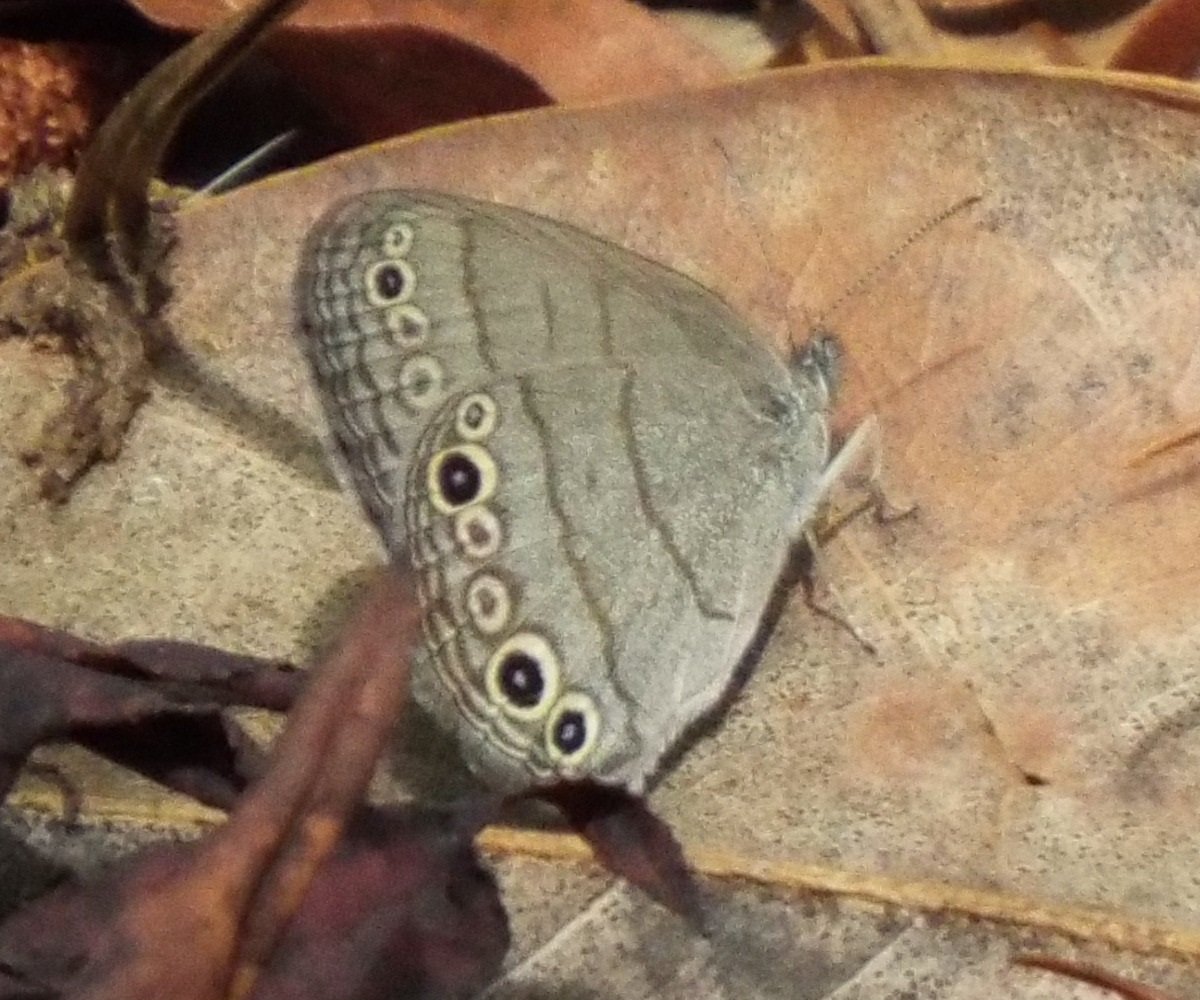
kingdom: Animalia
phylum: Arthropoda
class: Insecta
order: Lepidoptera
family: Nymphalidae
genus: Hermeuptychia
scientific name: Hermeuptychia hermes
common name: Carolina Satyr
